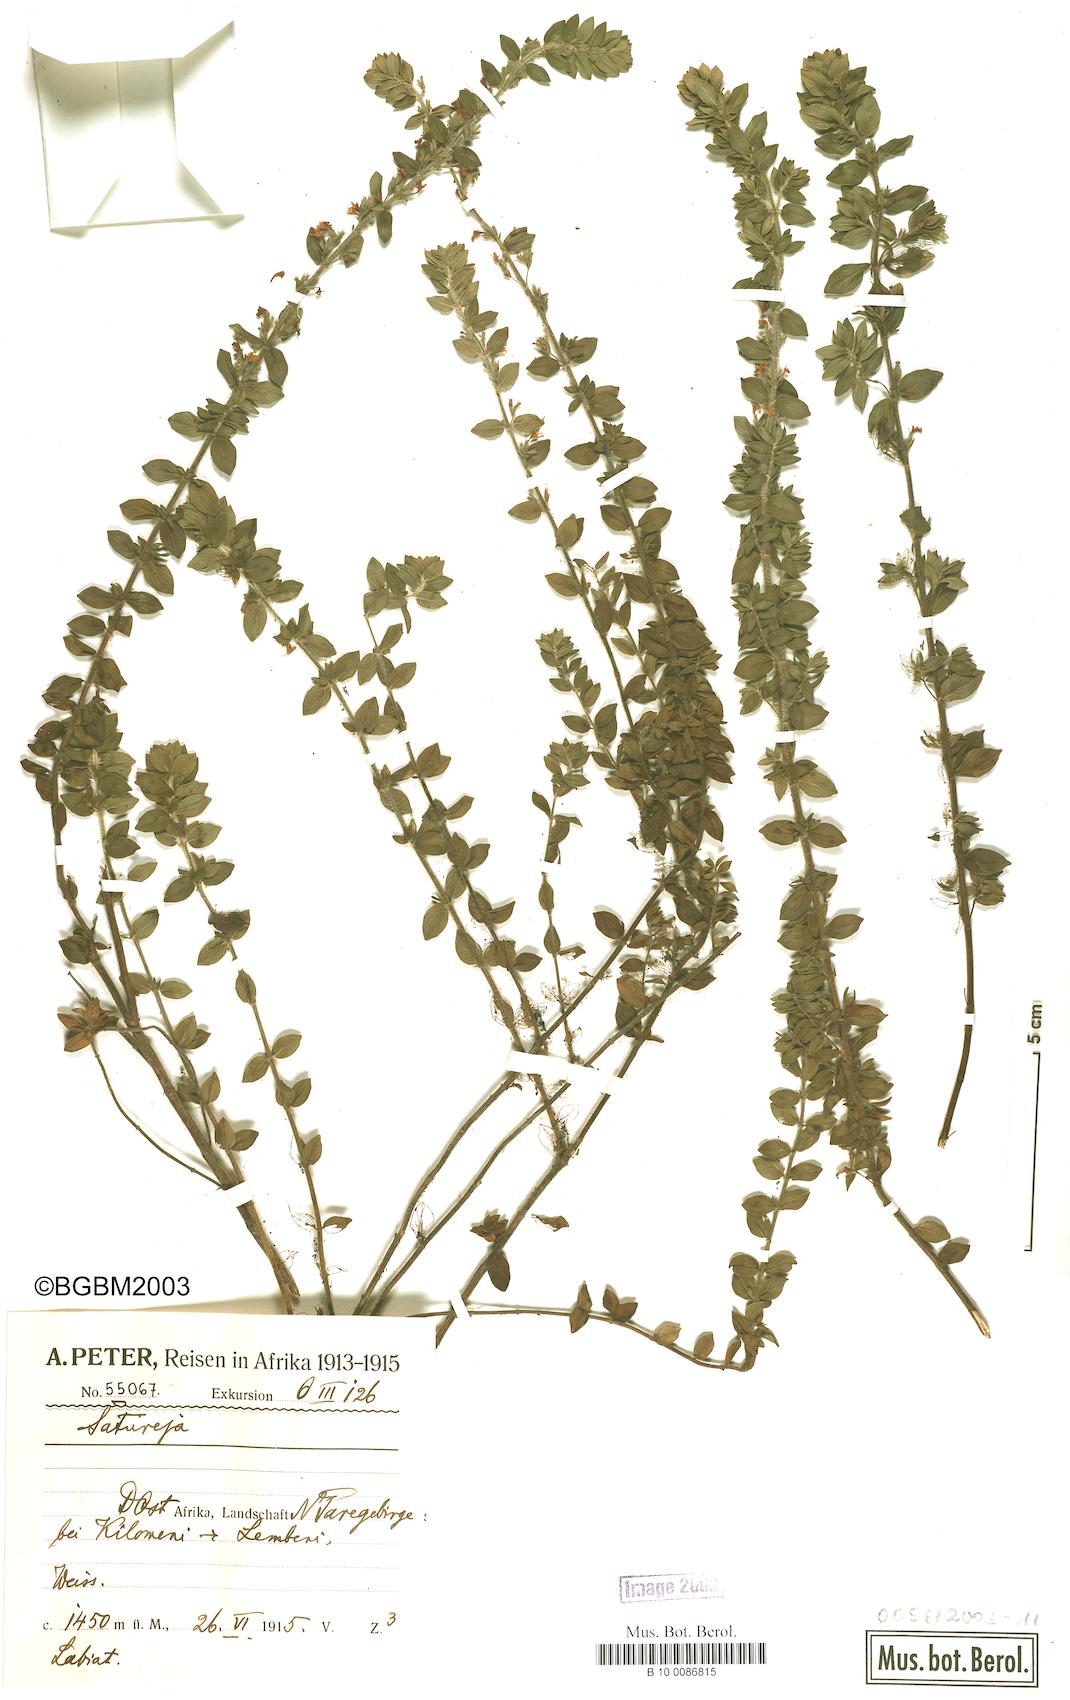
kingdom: Plantae
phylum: Tracheophyta
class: Magnoliopsida
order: Lamiales
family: Lamiaceae
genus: Satureja
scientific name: Satureja
